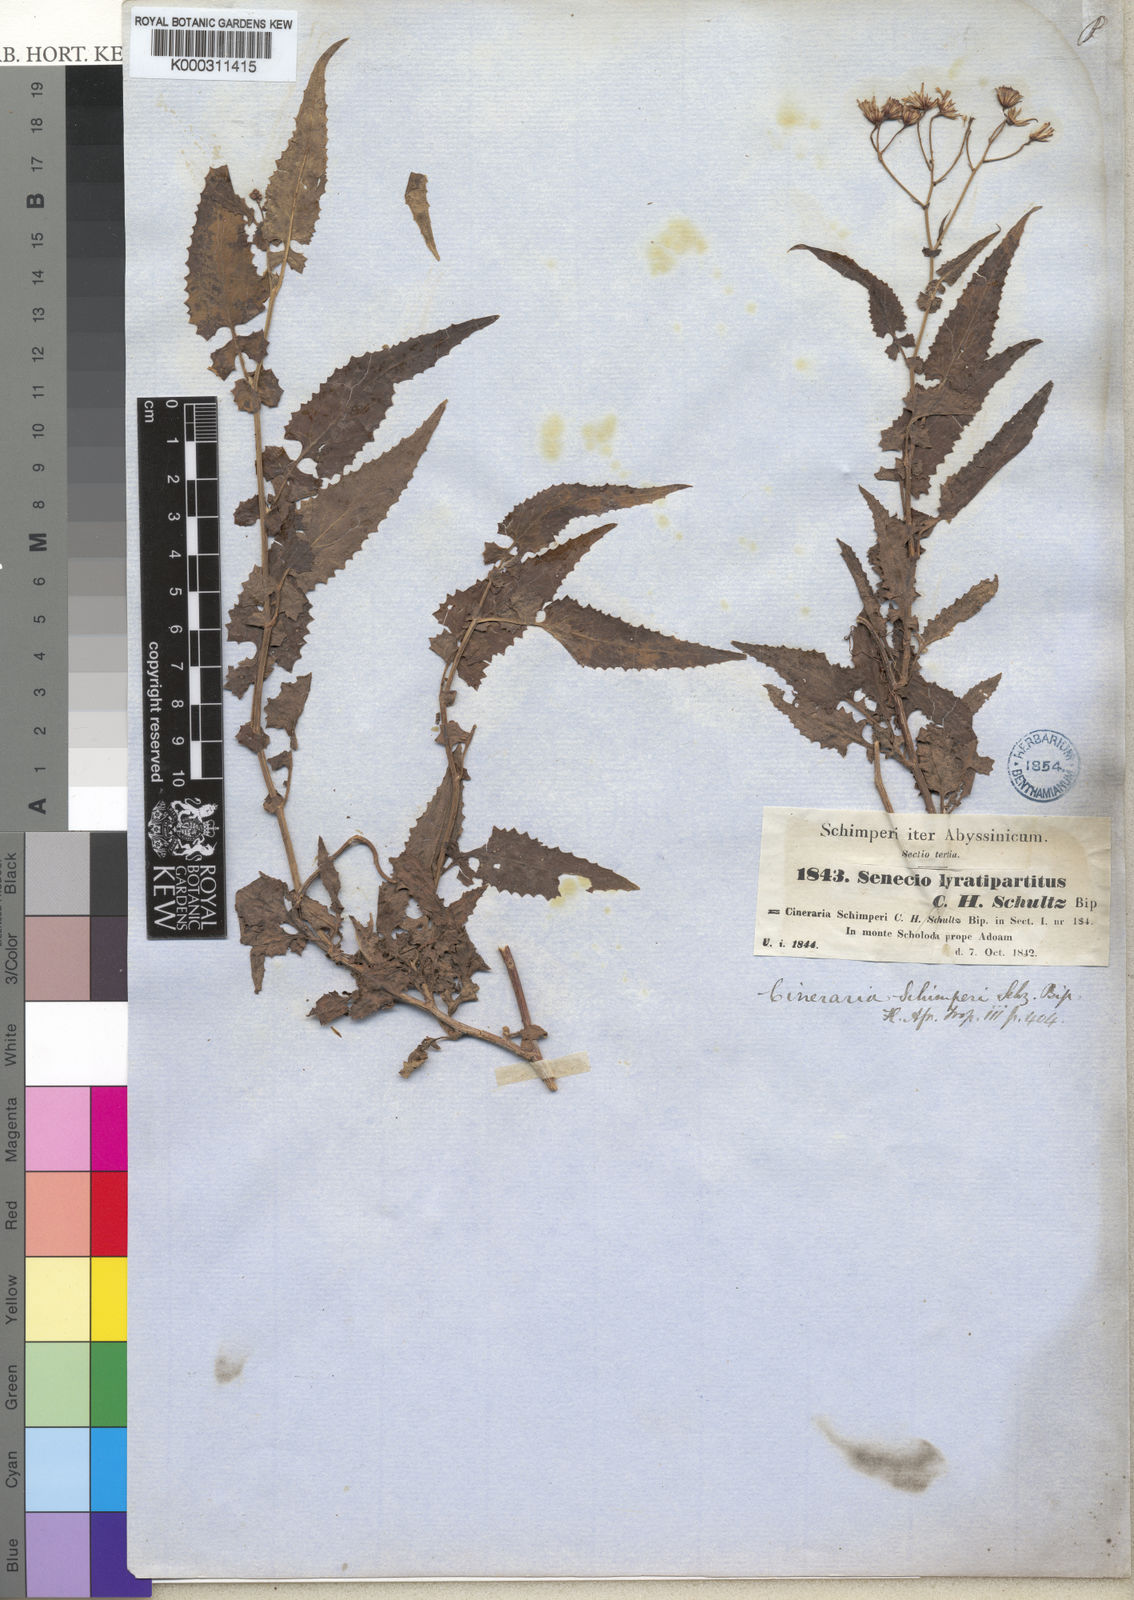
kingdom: Plantae
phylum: Tracheophyta
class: Magnoliopsida
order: Asterales
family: Asteraceae
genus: Senecio
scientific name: Senecio lyratus
